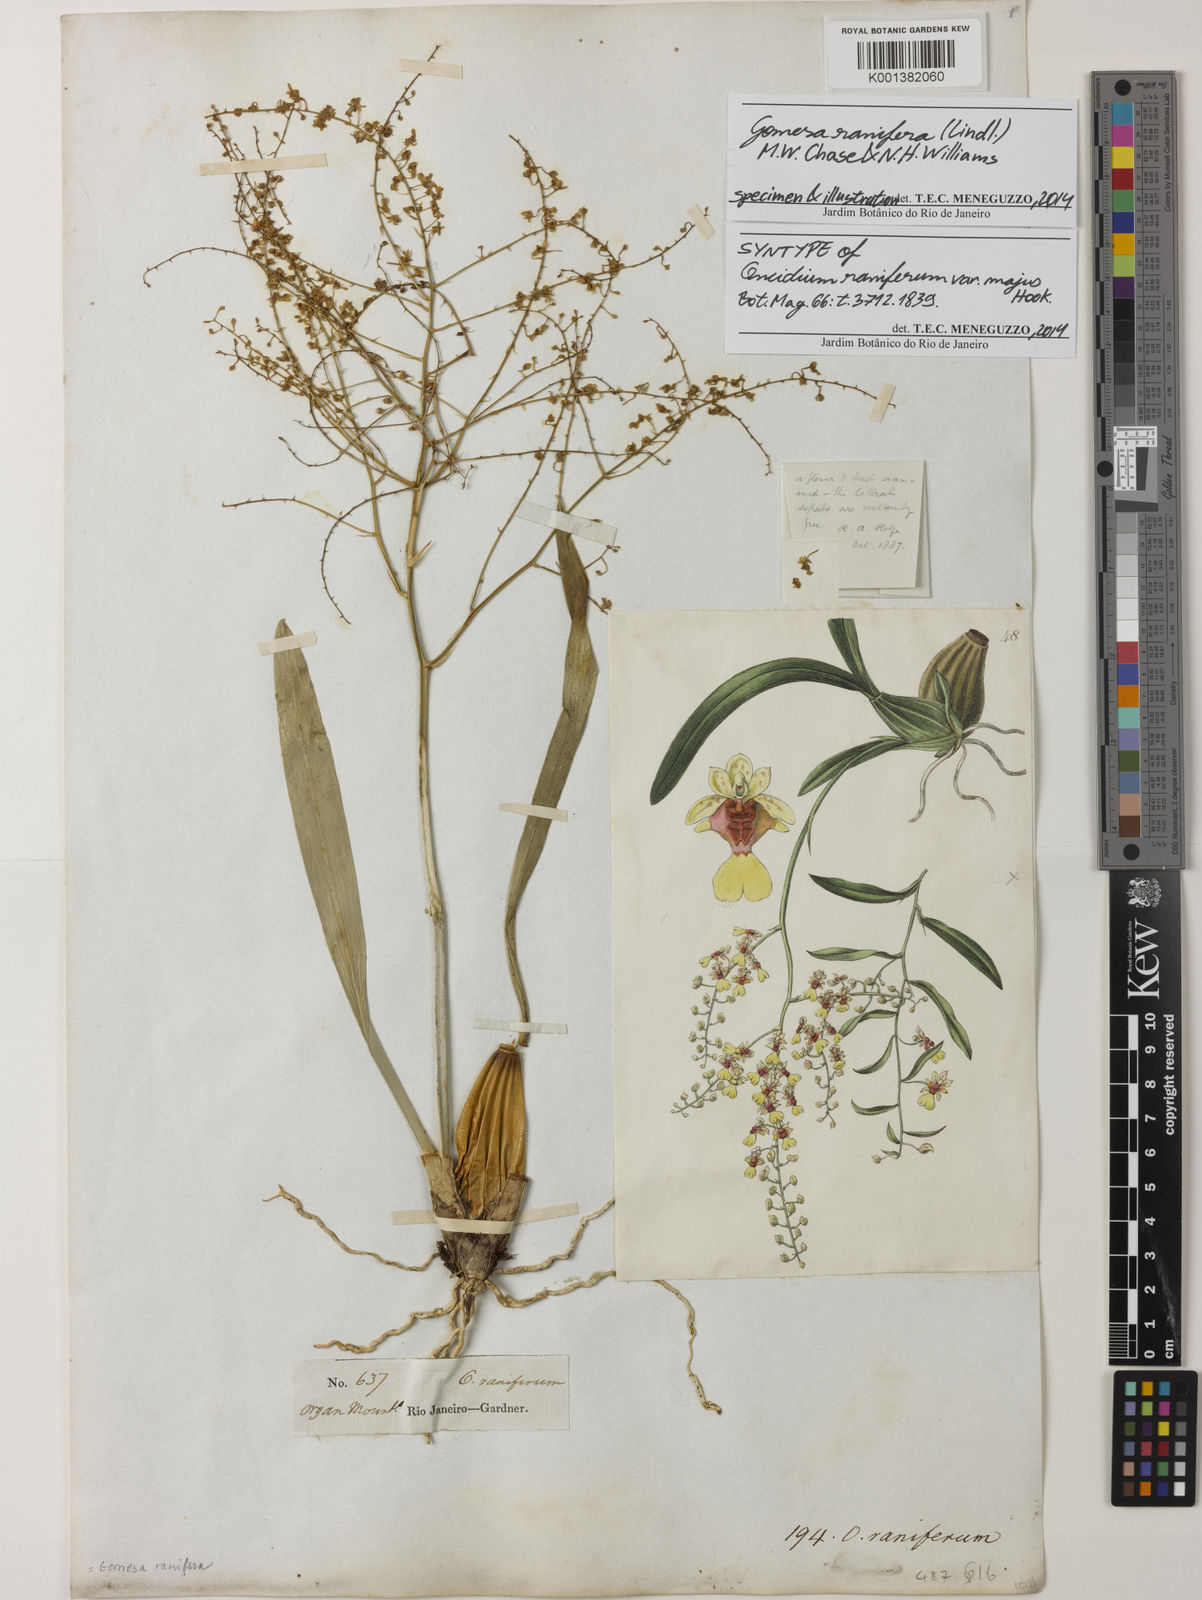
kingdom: Plantae
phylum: Tracheophyta
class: Liliopsida
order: Asparagales
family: Orchidaceae
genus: Gomesa
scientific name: Gomesa ranifera
